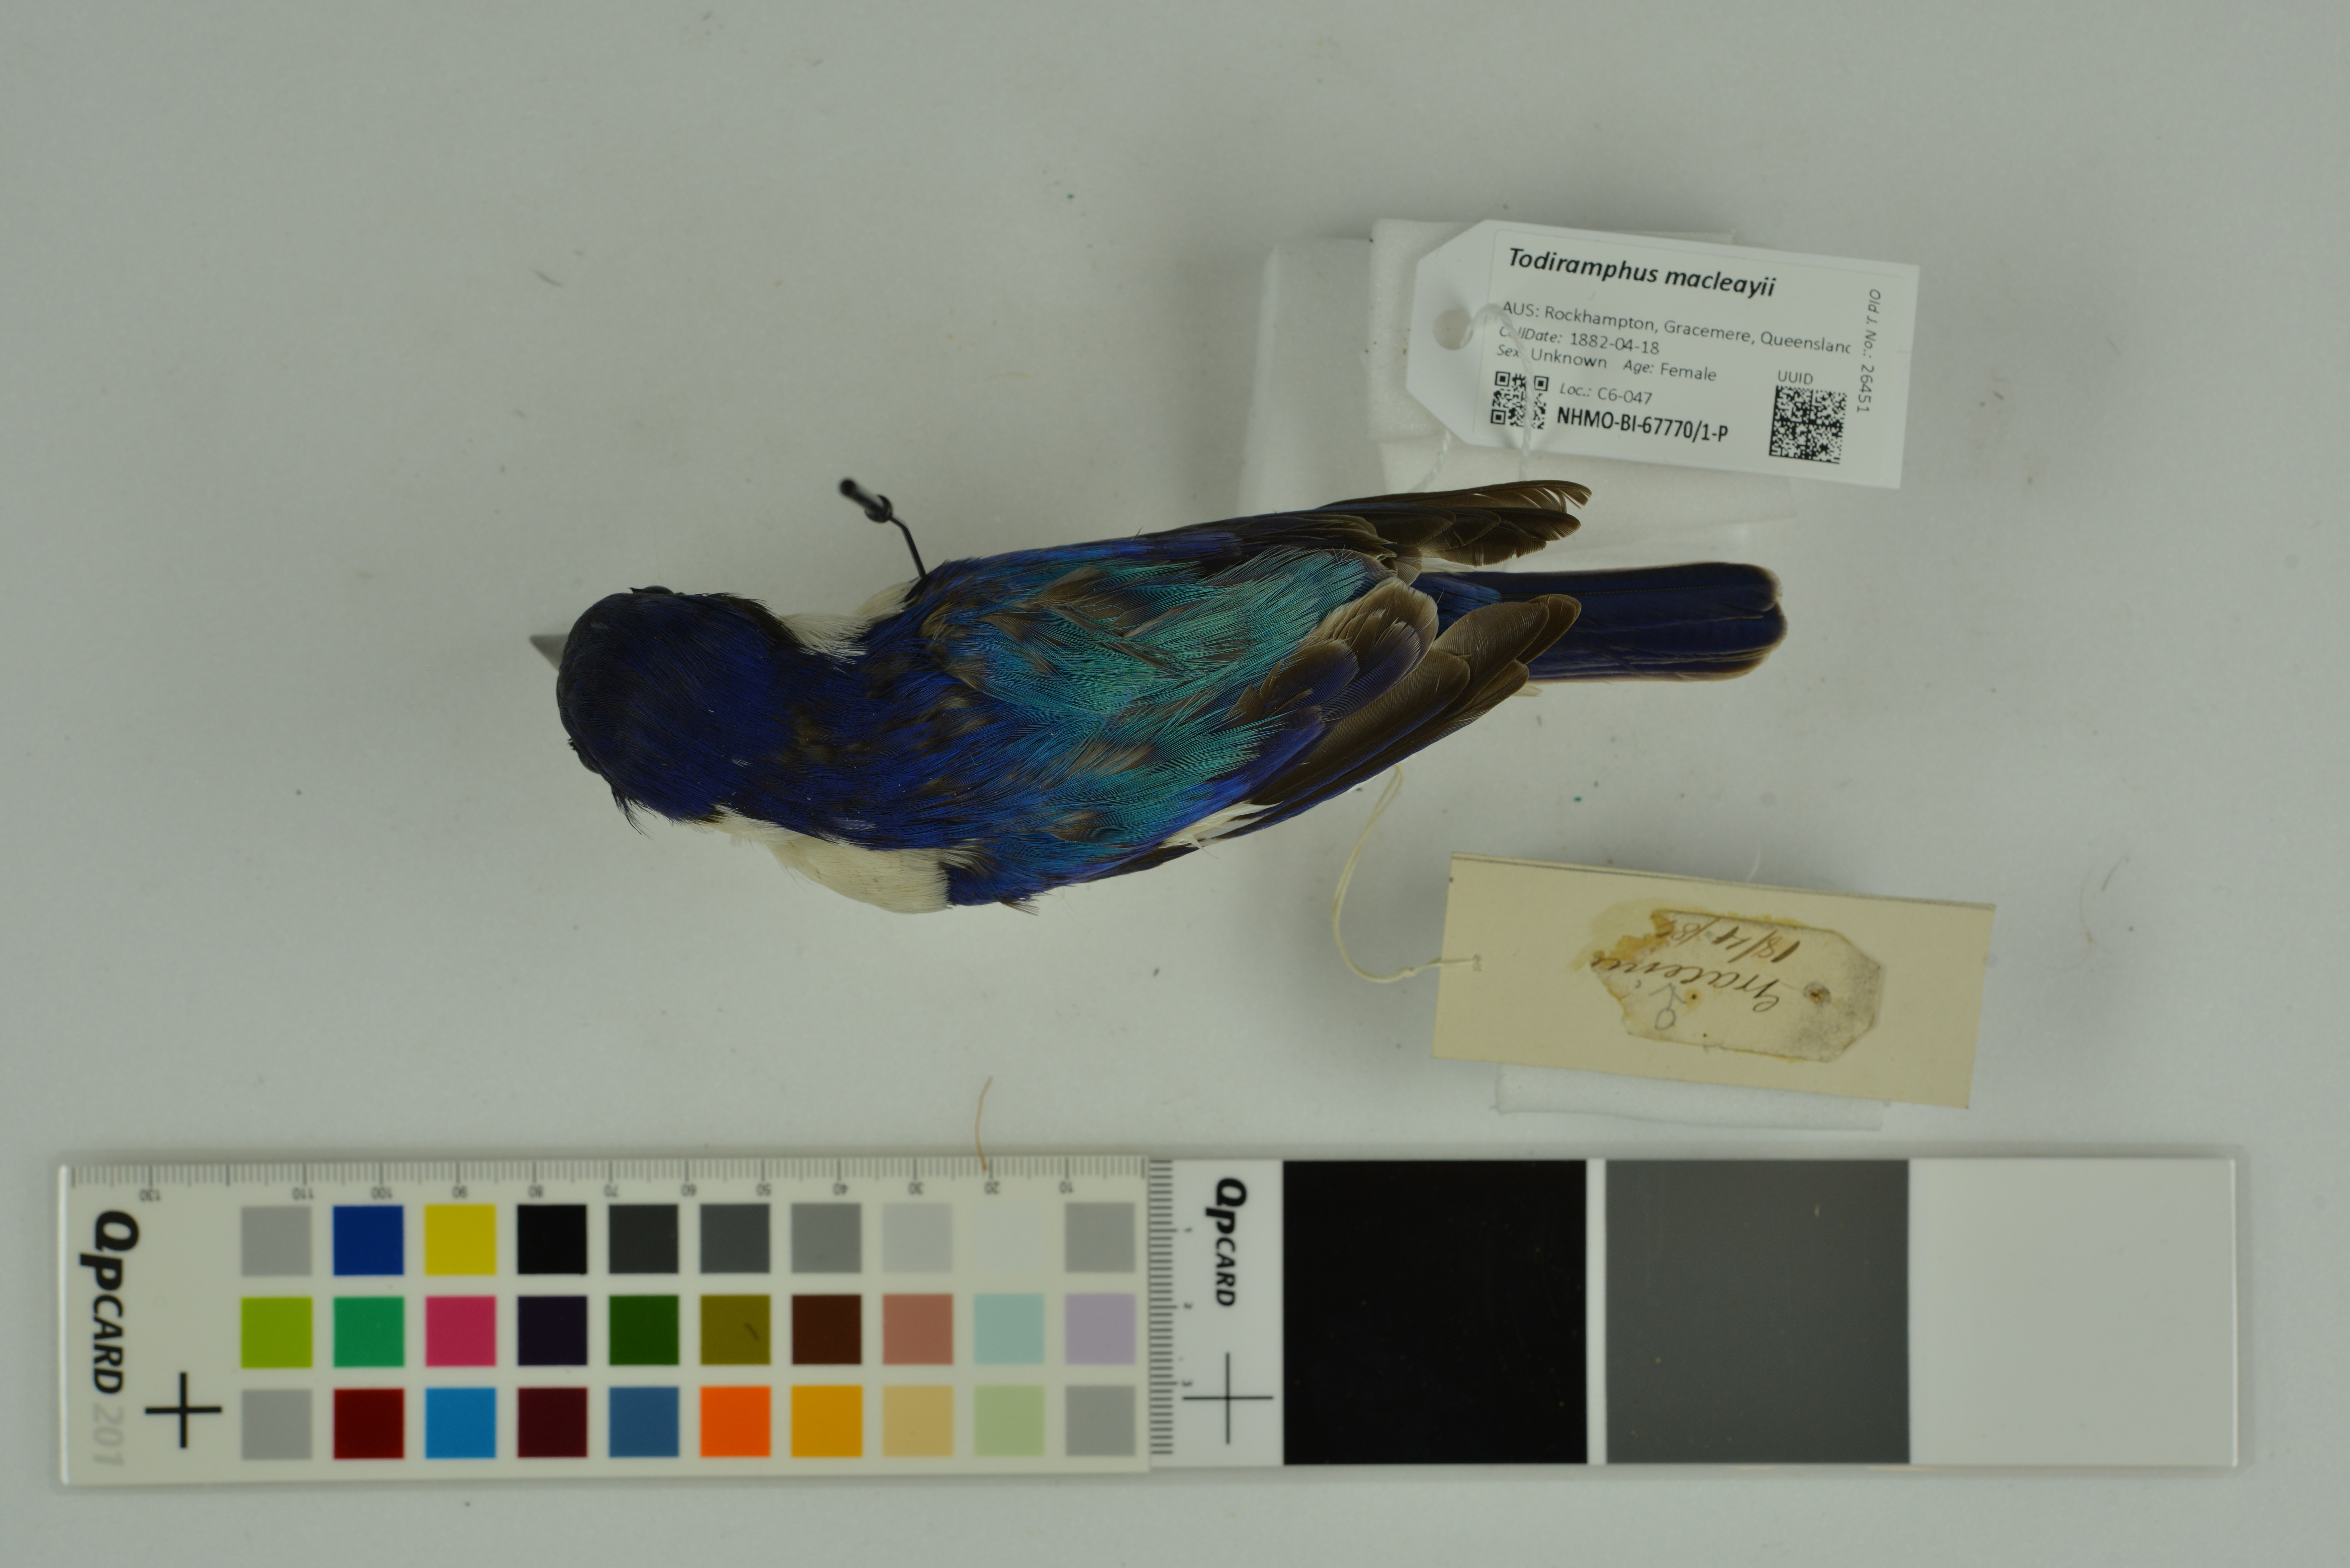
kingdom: Animalia
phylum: Chordata
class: Aves
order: Coraciiformes
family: Alcedinidae
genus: Todiramphus
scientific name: Todiramphus macleayii
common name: Forest kingfisher
